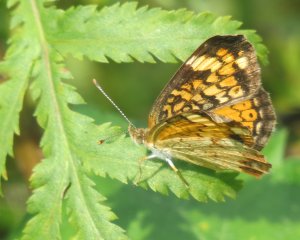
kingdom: Animalia
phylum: Arthropoda
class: Insecta
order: Lepidoptera
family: Nymphalidae
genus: Phyciodes
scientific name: Phyciodes tharos
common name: Northern Crescent
